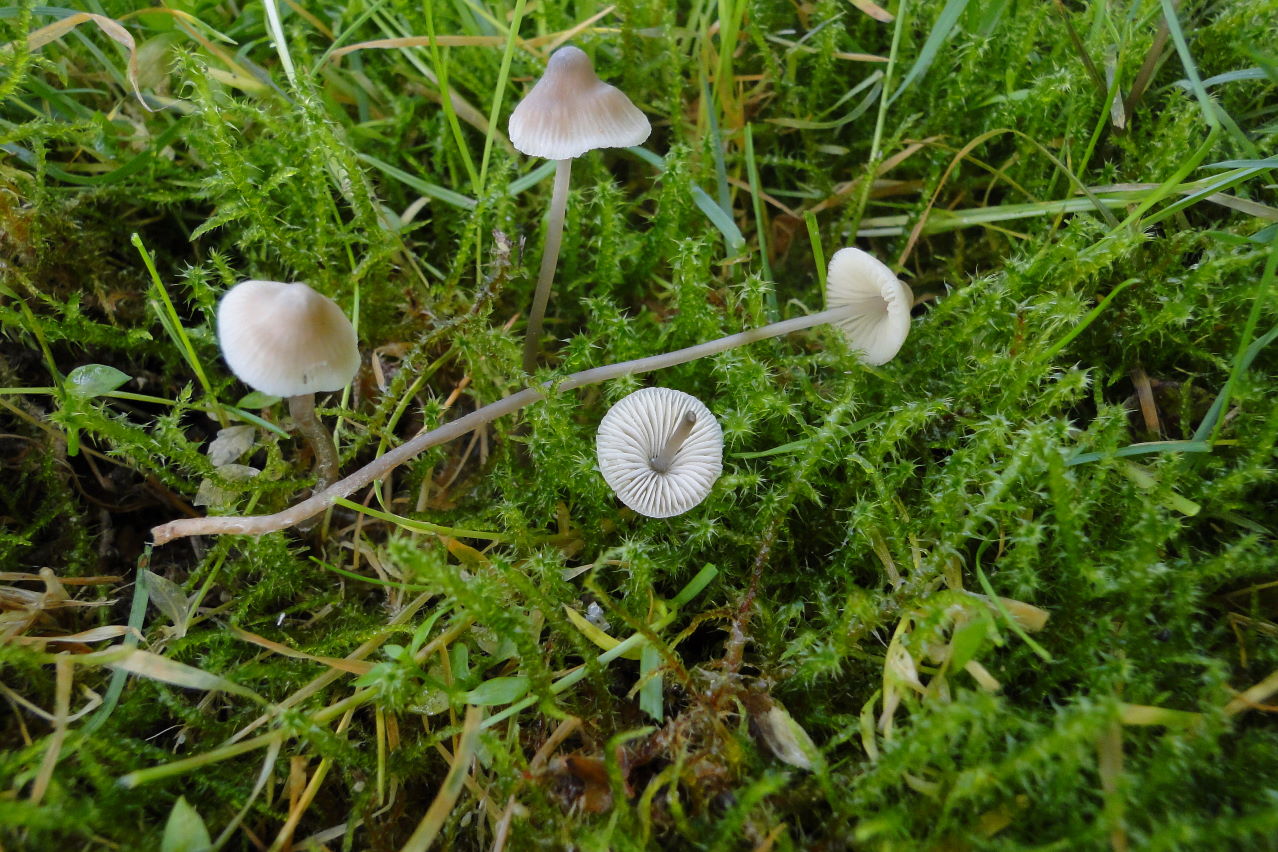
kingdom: Fungi
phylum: Basidiomycota
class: Agaricomycetes
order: Agaricales
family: Mycenaceae
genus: Mycena
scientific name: Mycena flavescens
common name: grågul huesvamp
